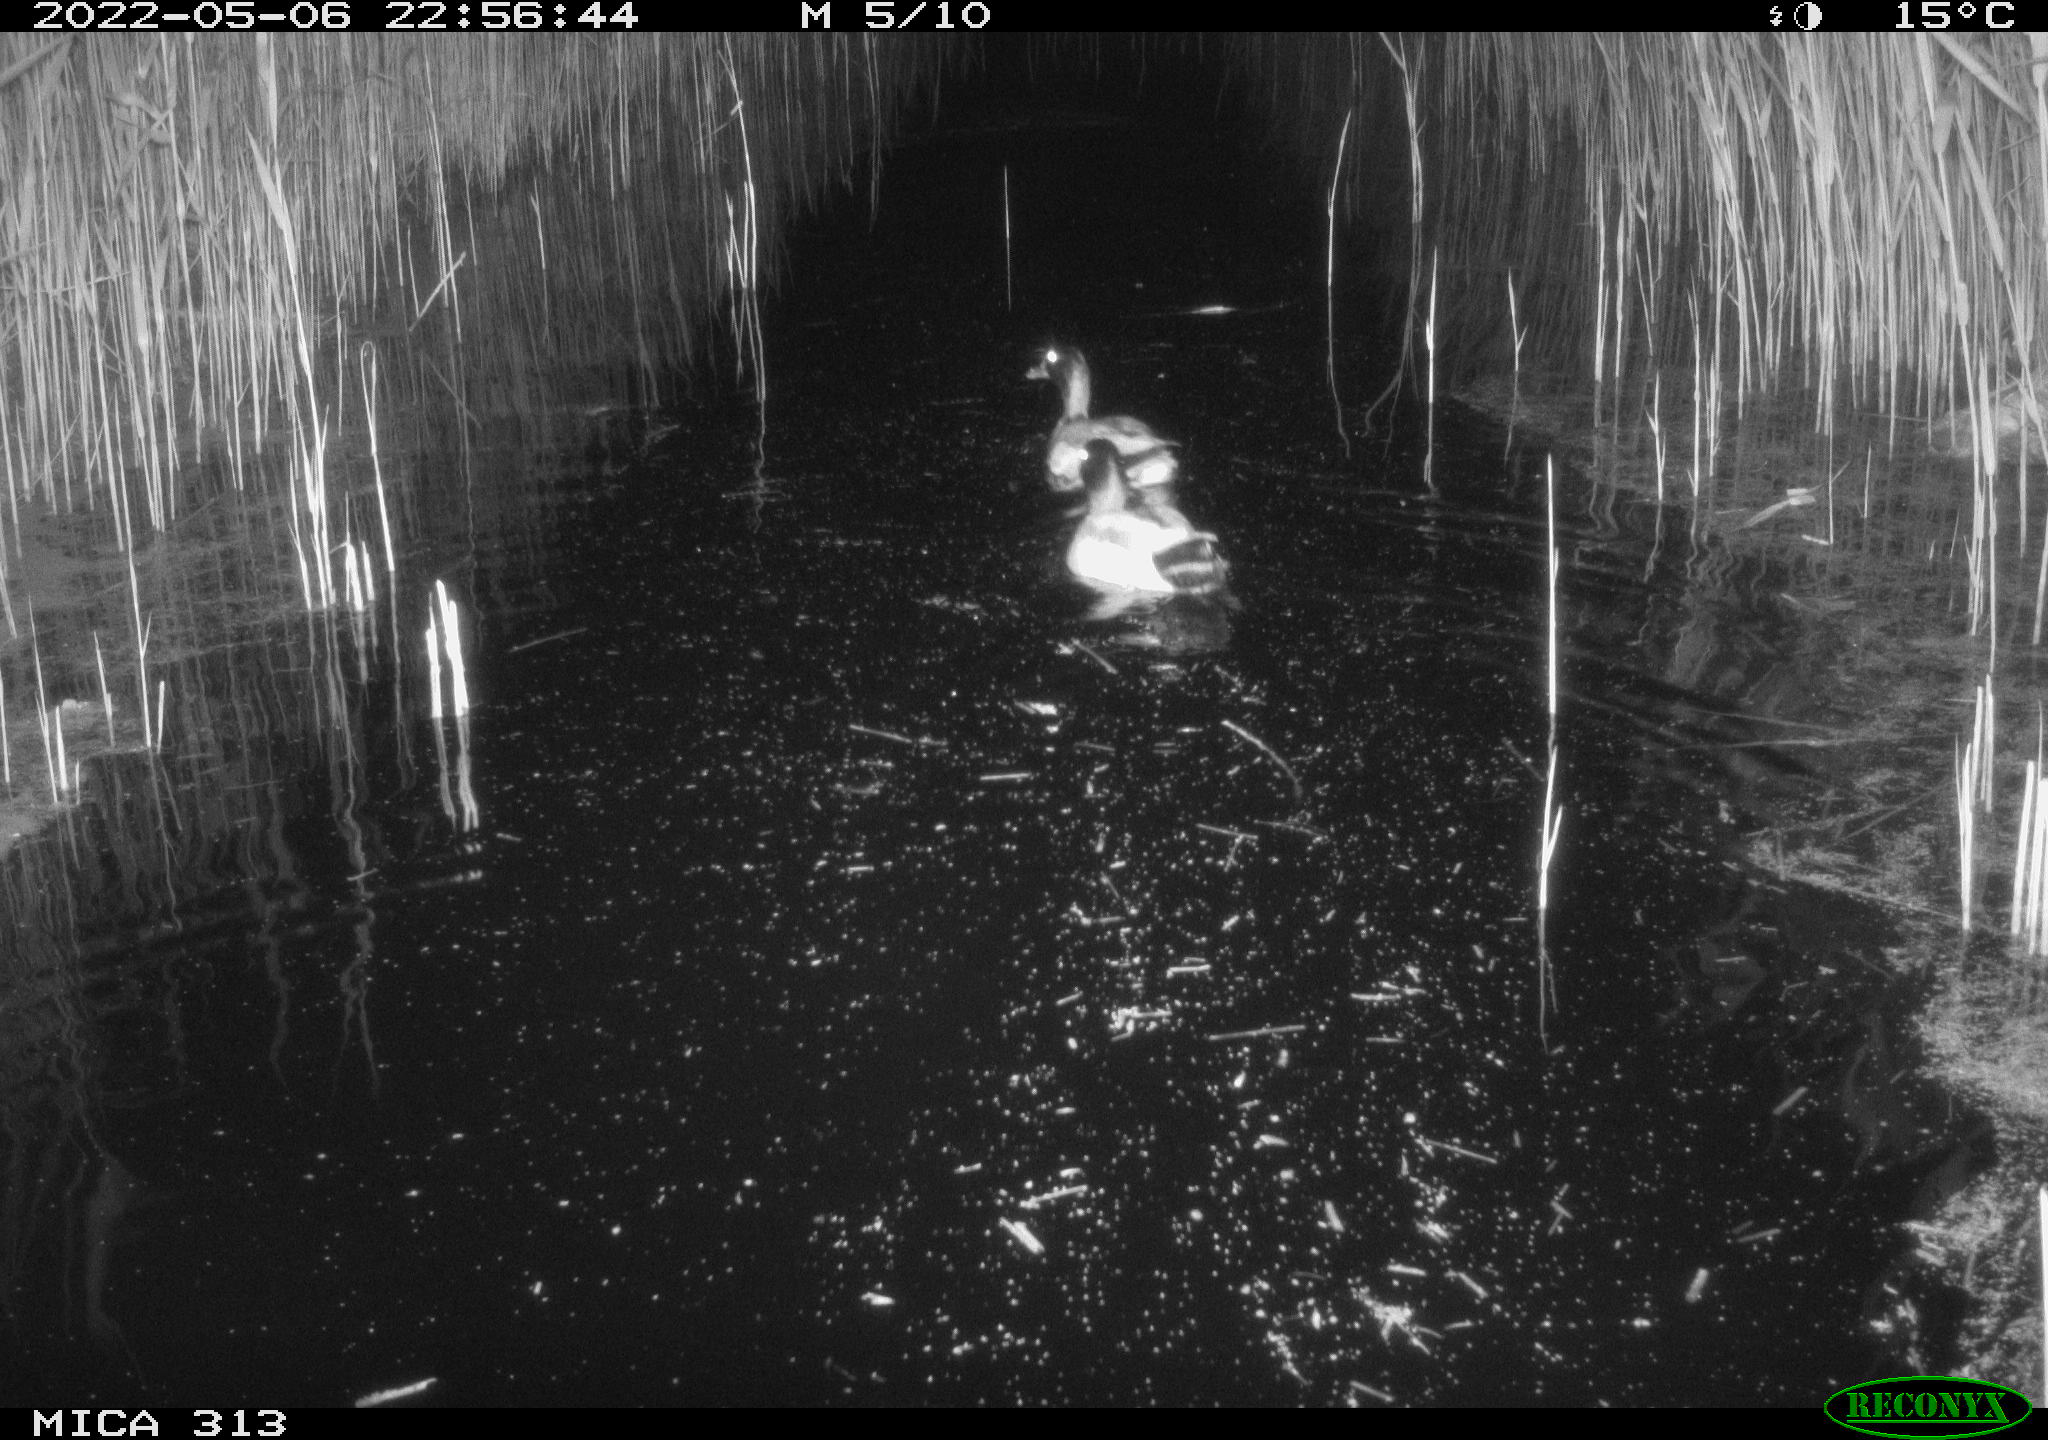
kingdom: Animalia
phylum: Chordata
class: Aves
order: Anseriformes
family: Anatidae
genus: Anas
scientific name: Anas platyrhynchos
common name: Mallard
